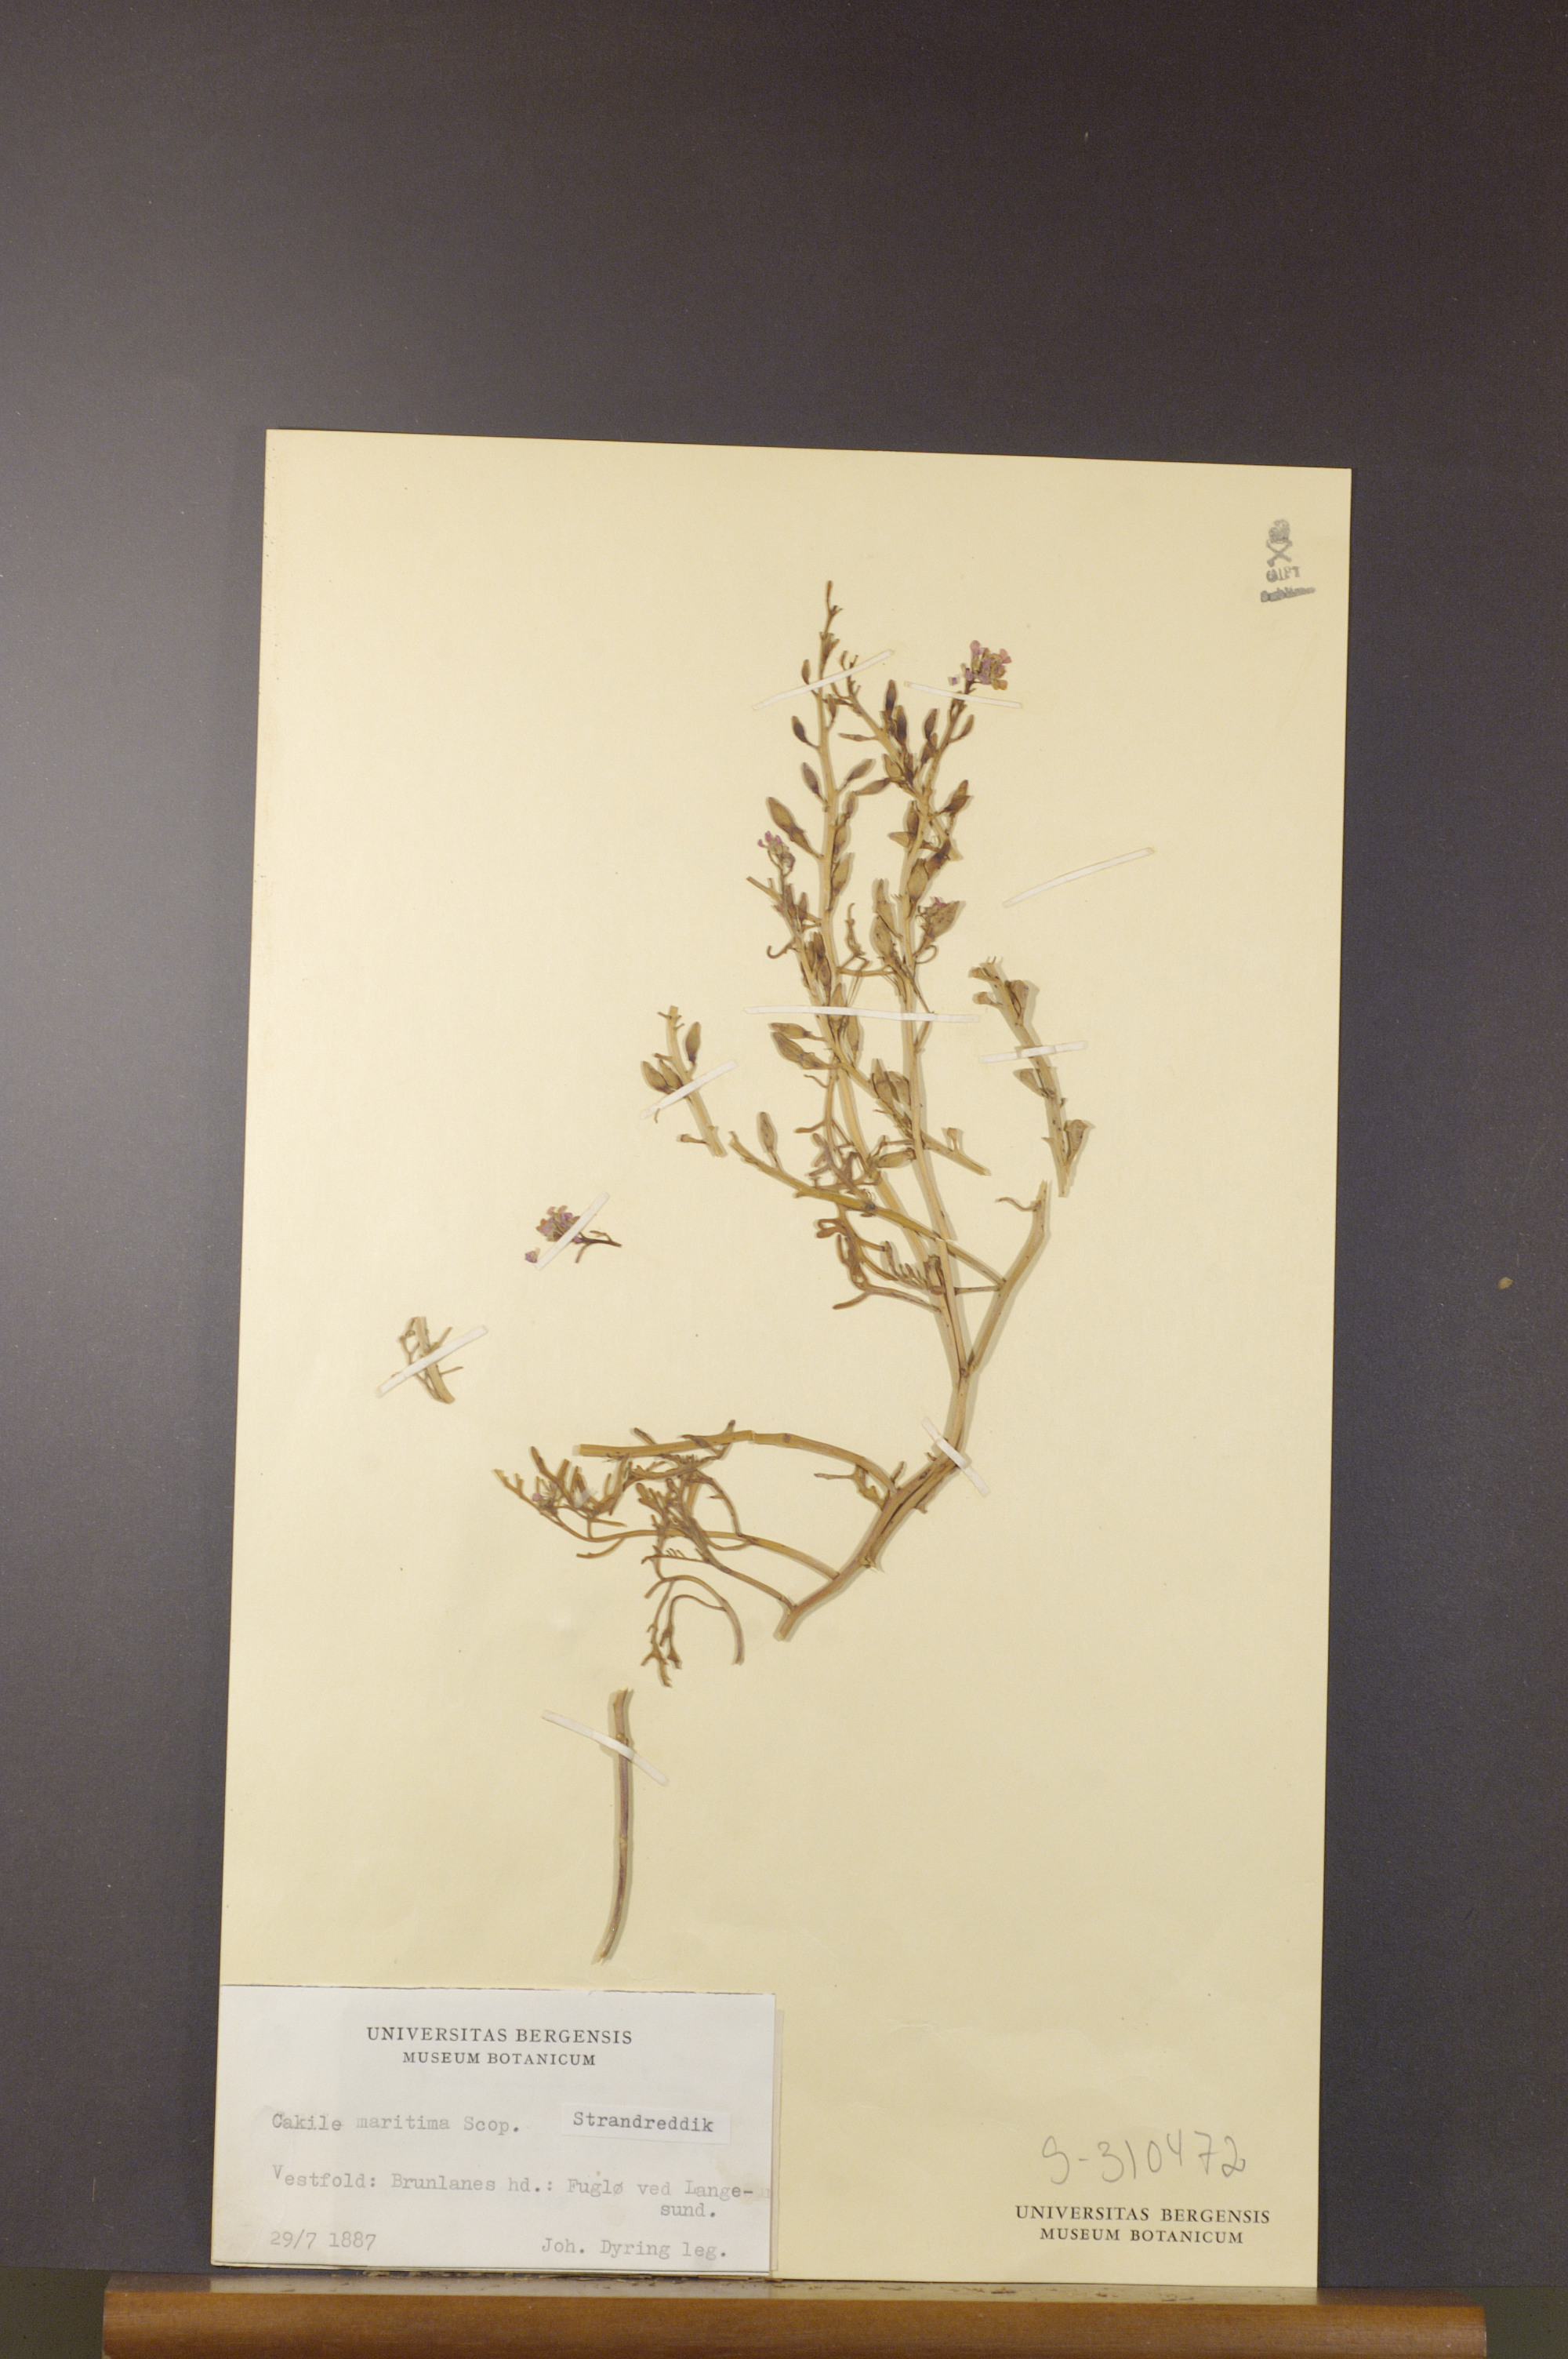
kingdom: Plantae
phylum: Tracheophyta
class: Magnoliopsida
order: Brassicales
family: Brassicaceae
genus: Cakile
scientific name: Cakile maritima
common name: Sea rocket
